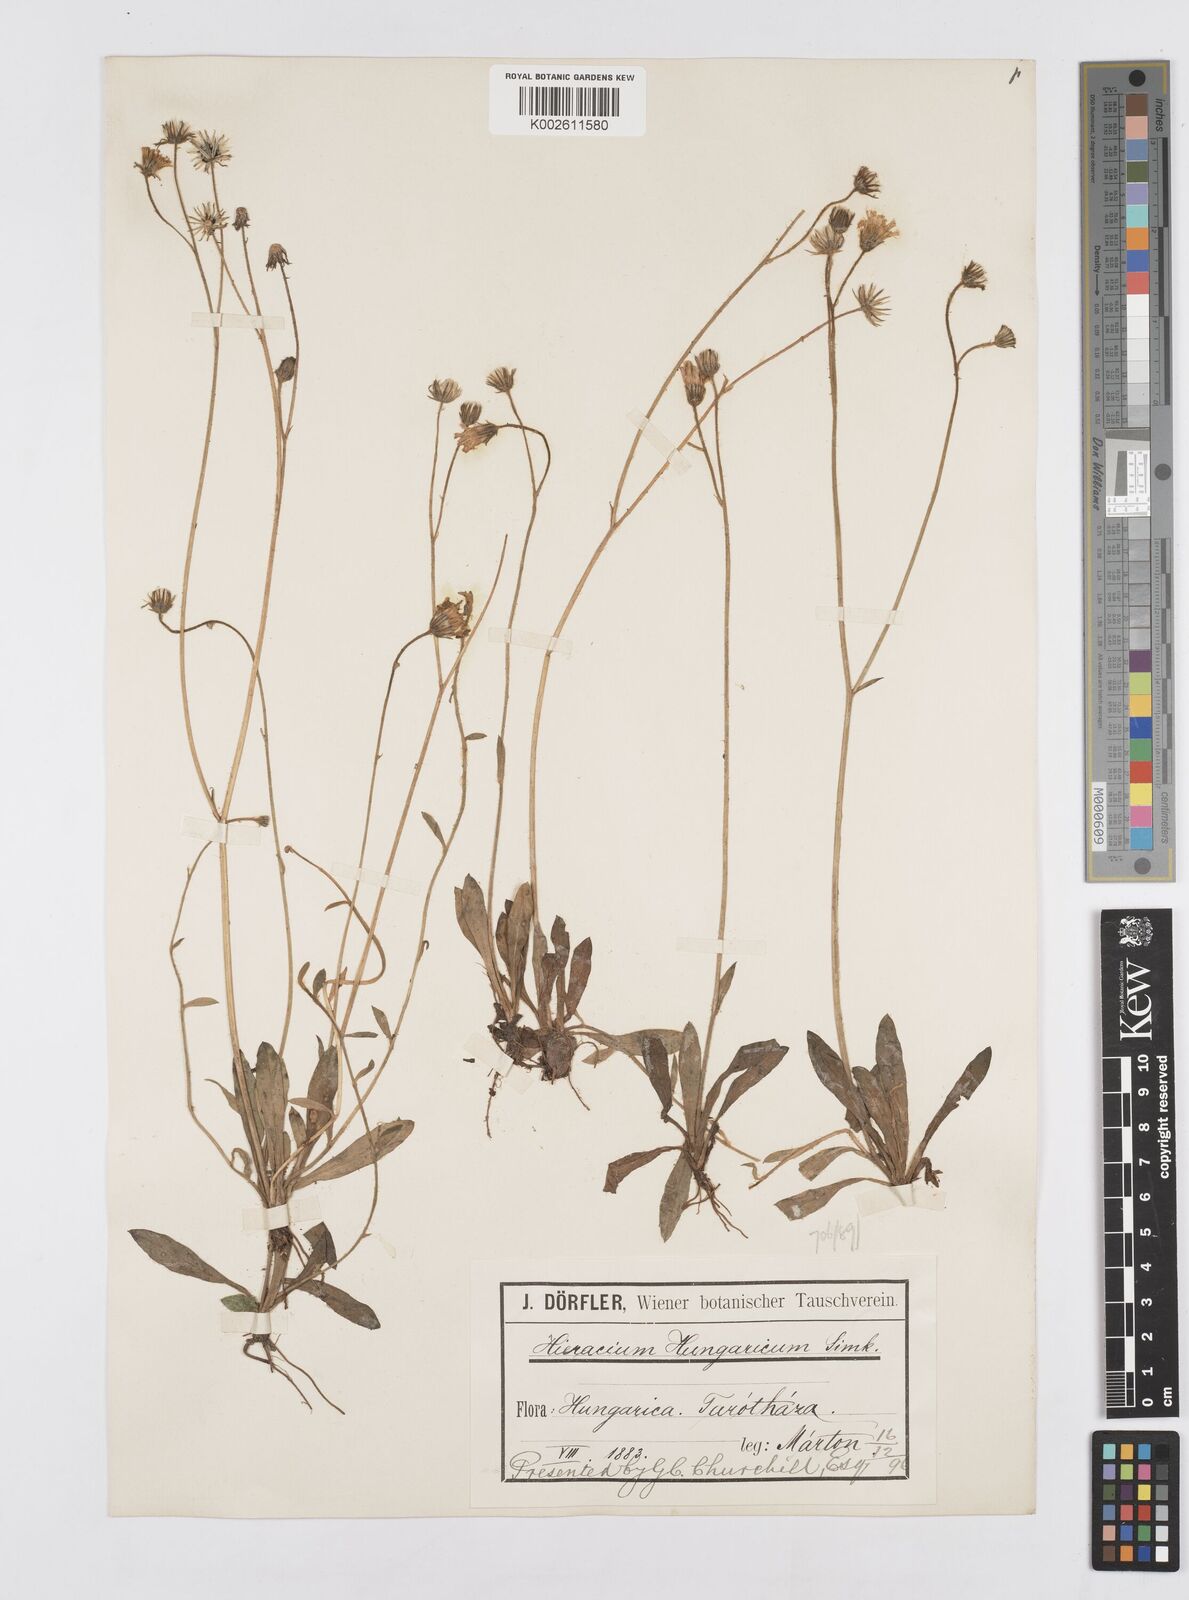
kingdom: Plantae
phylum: Tracheophyta
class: Magnoliopsida
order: Asterales
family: Asteraceae
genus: Pilosella
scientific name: Pilosella acutifolia
